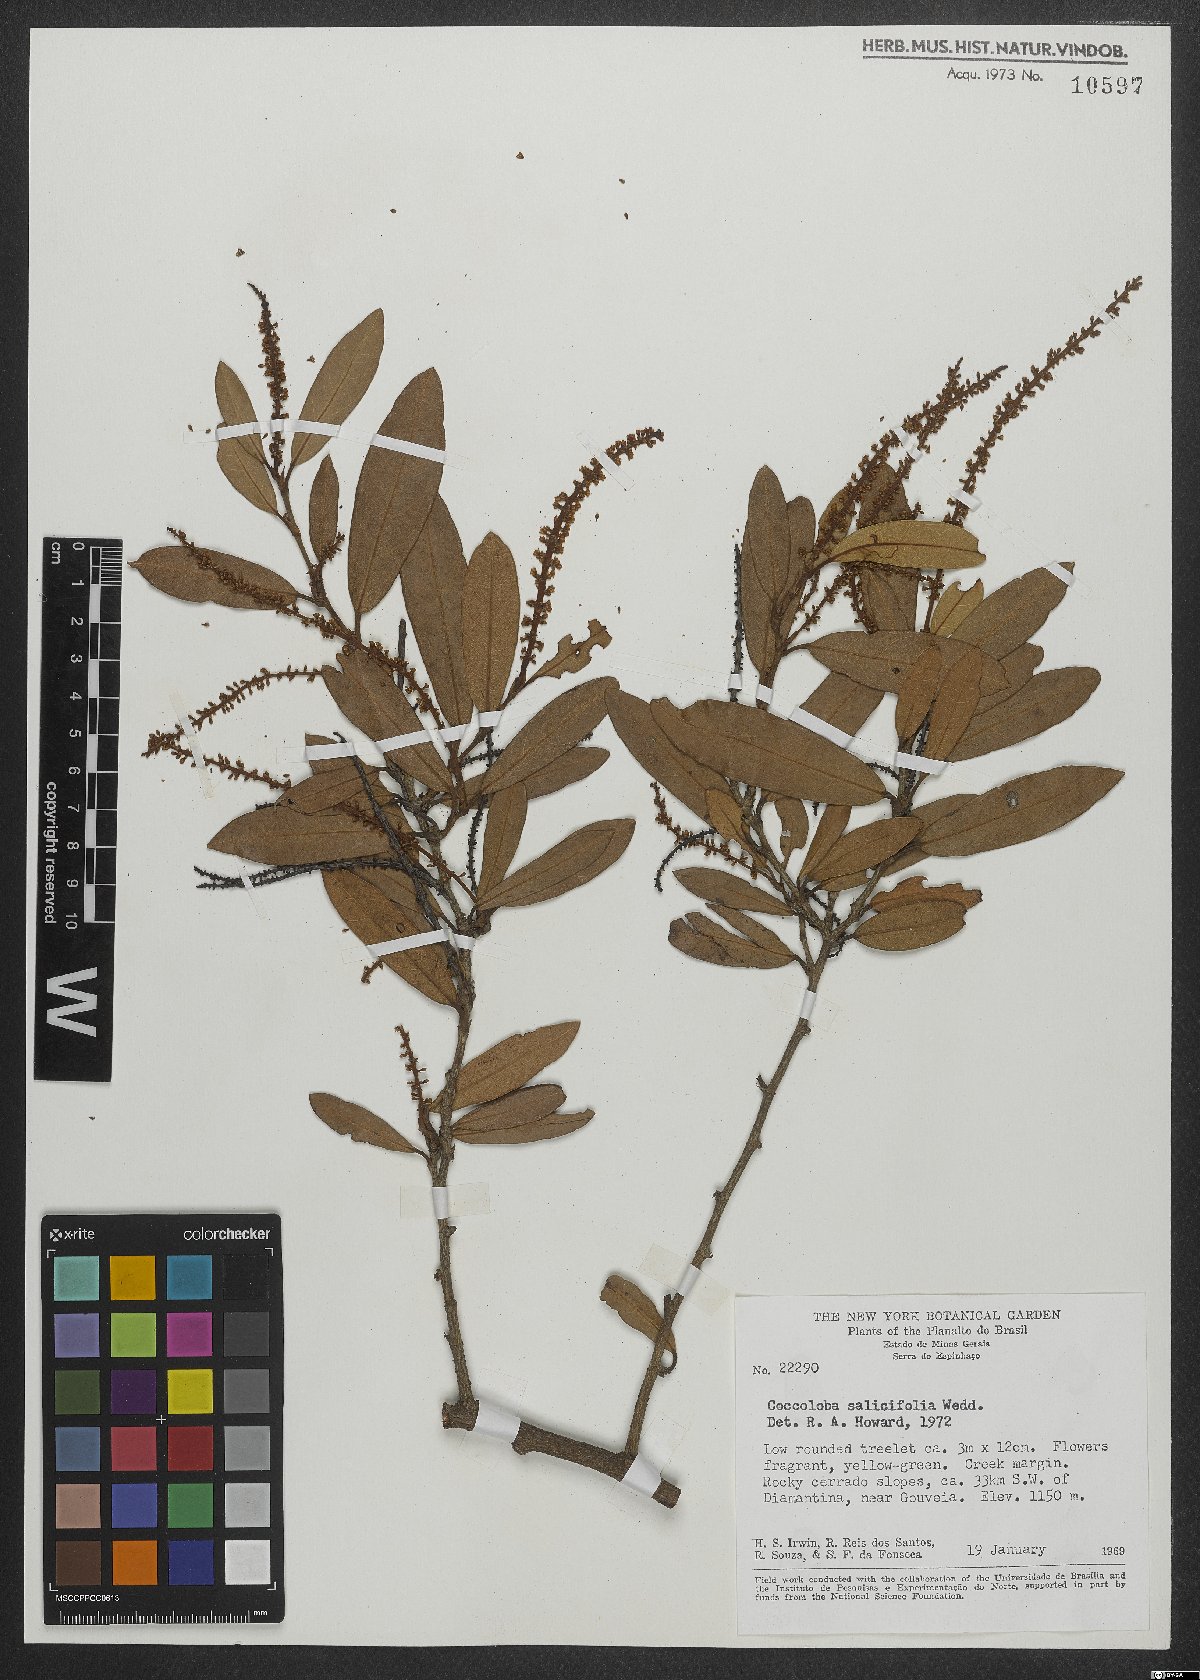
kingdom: Plantae
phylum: Tracheophyta
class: Magnoliopsida
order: Caryophyllales
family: Polygonaceae
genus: Coccoloba
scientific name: Coccoloba salicifolia
